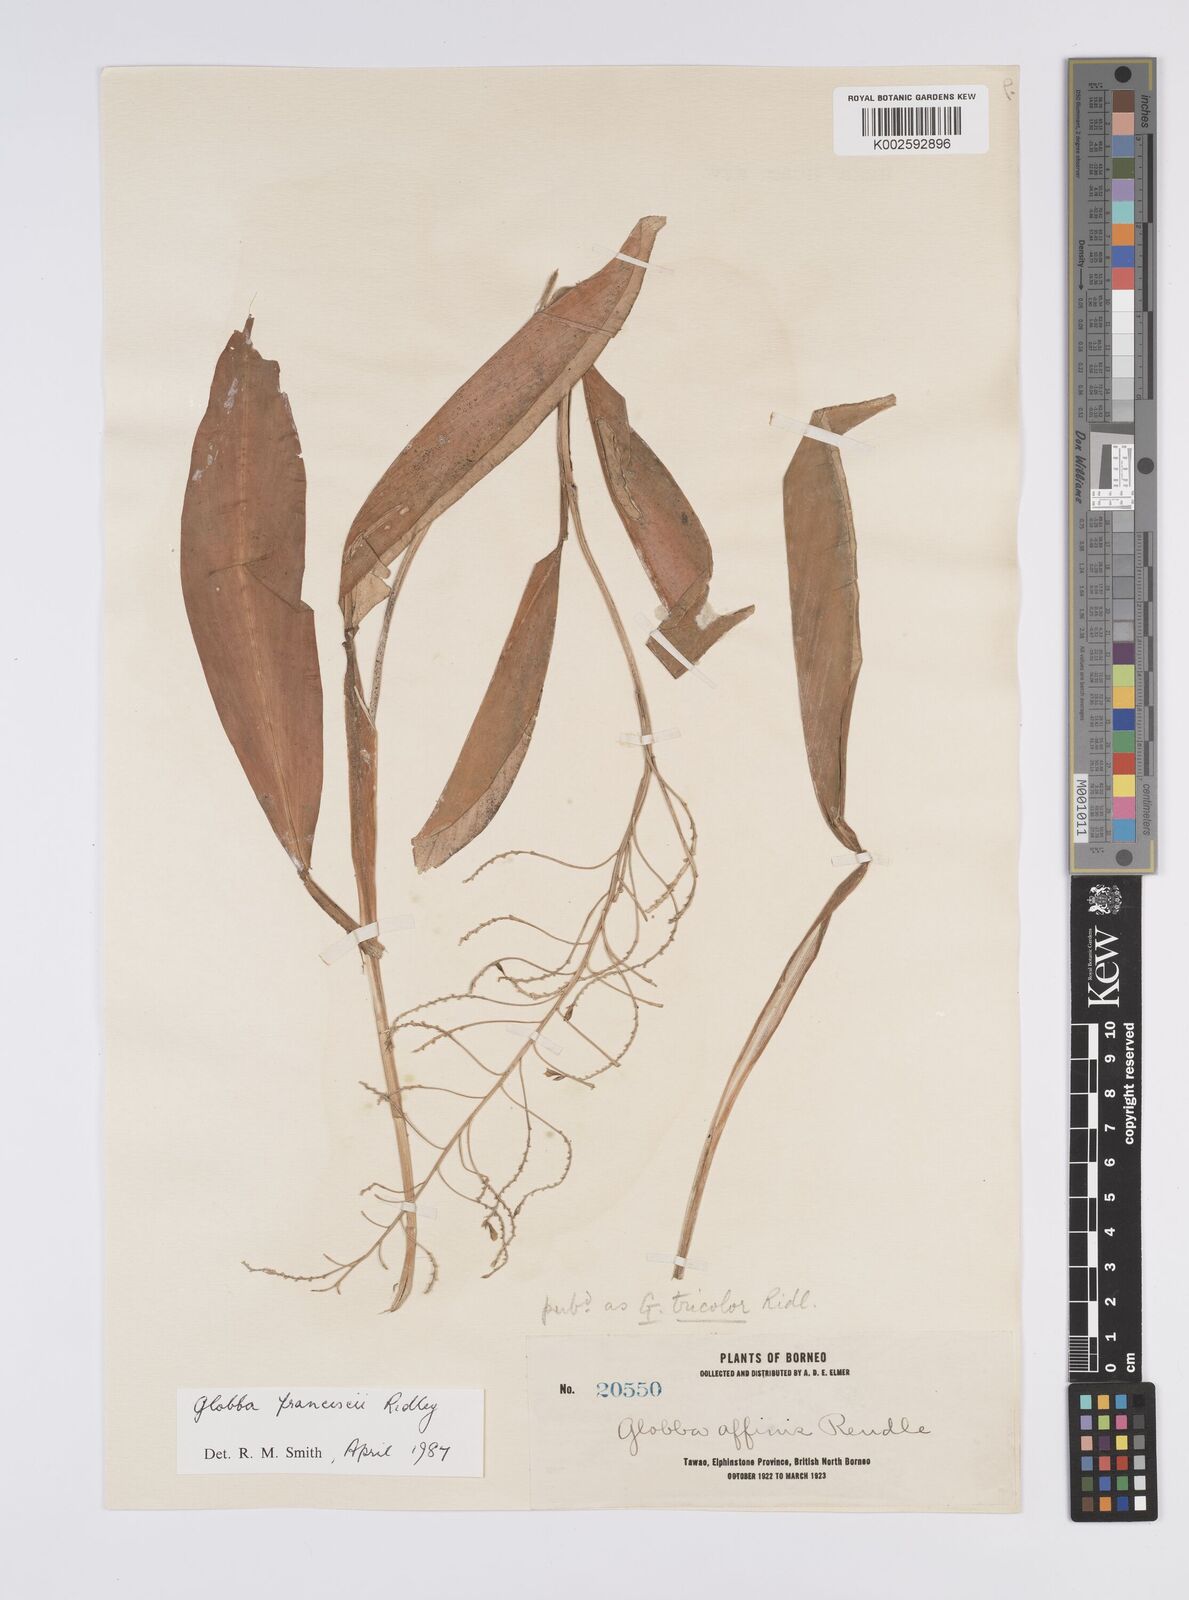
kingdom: Plantae
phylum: Tracheophyta
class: Liliopsida
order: Zingiberales
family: Zingiberaceae
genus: Globba
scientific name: Globba francisci
